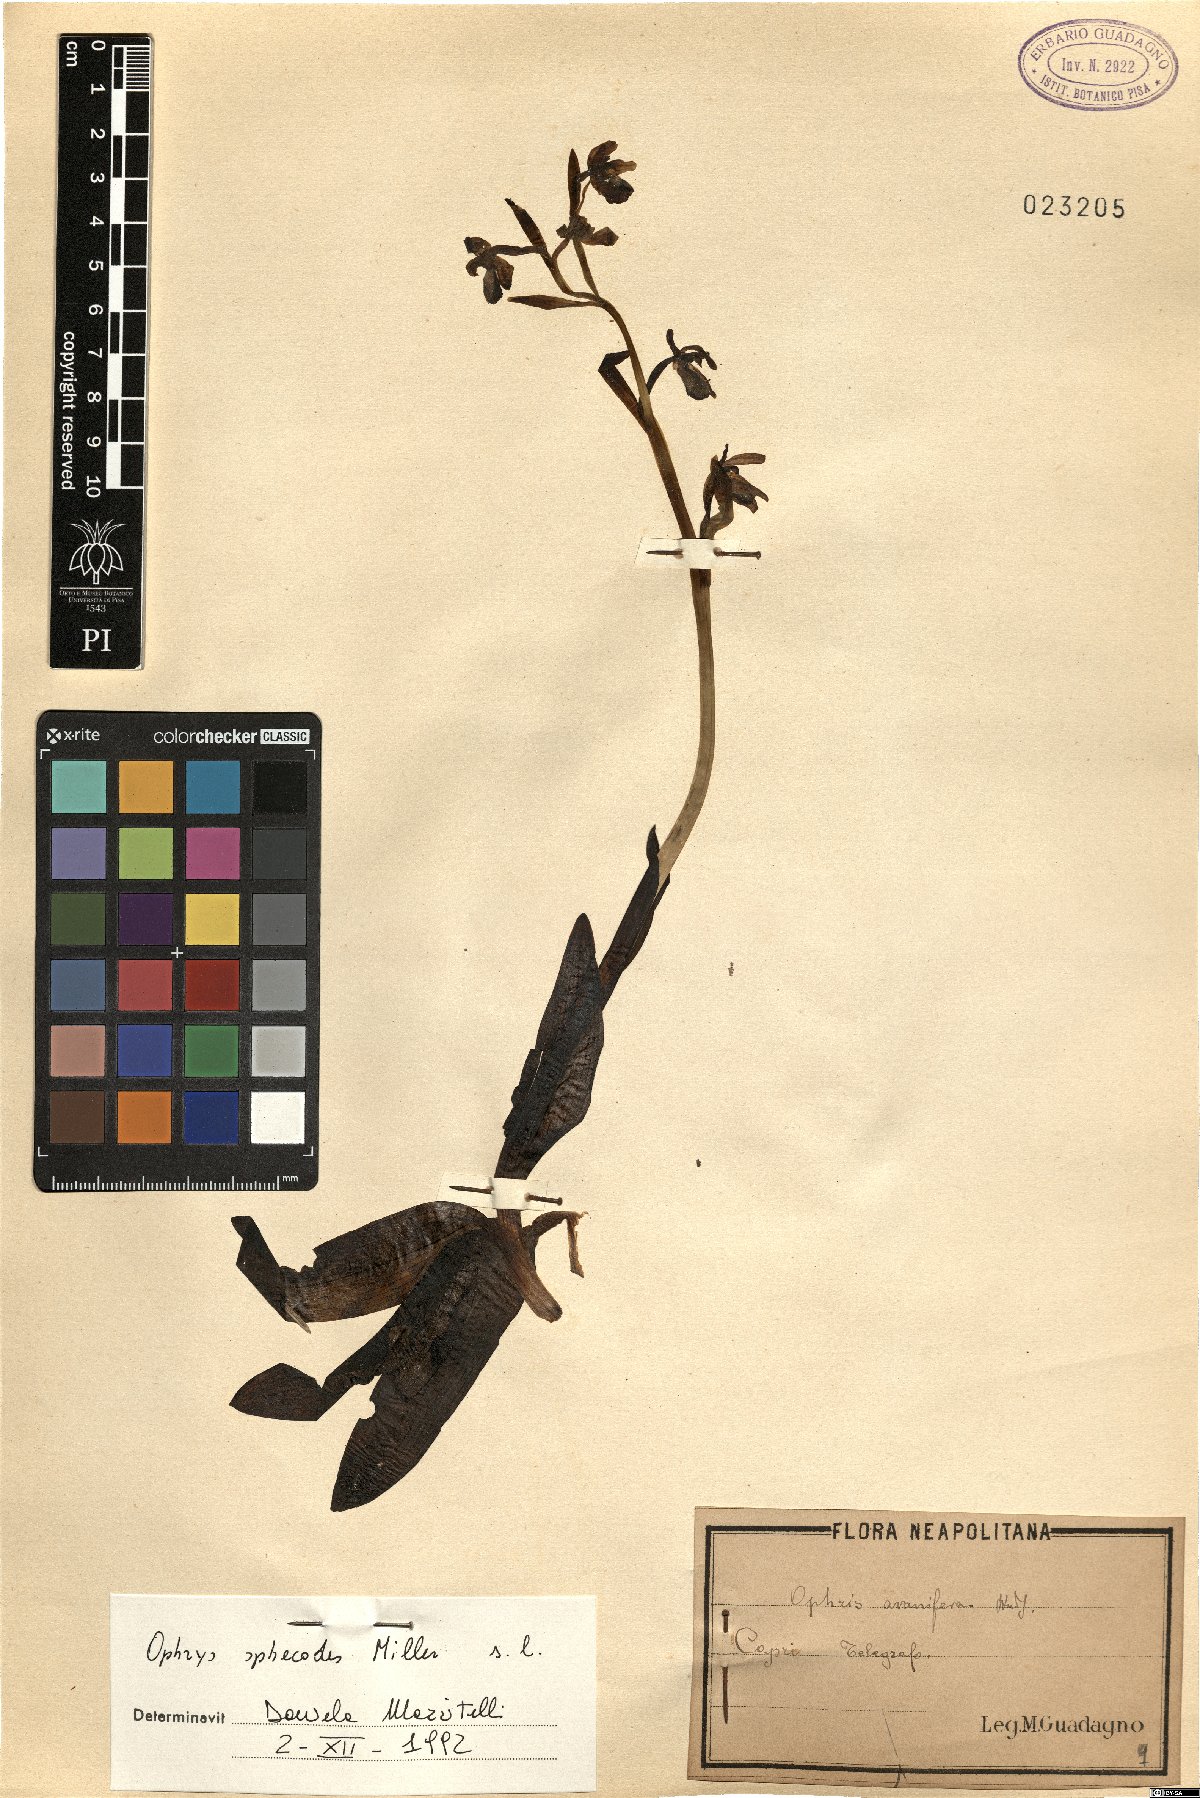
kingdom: Plantae
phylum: Tracheophyta
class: Liliopsida
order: Asparagales
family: Orchidaceae
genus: Ophrys
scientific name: Ophrys sphegodes
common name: Early spider-orchid
